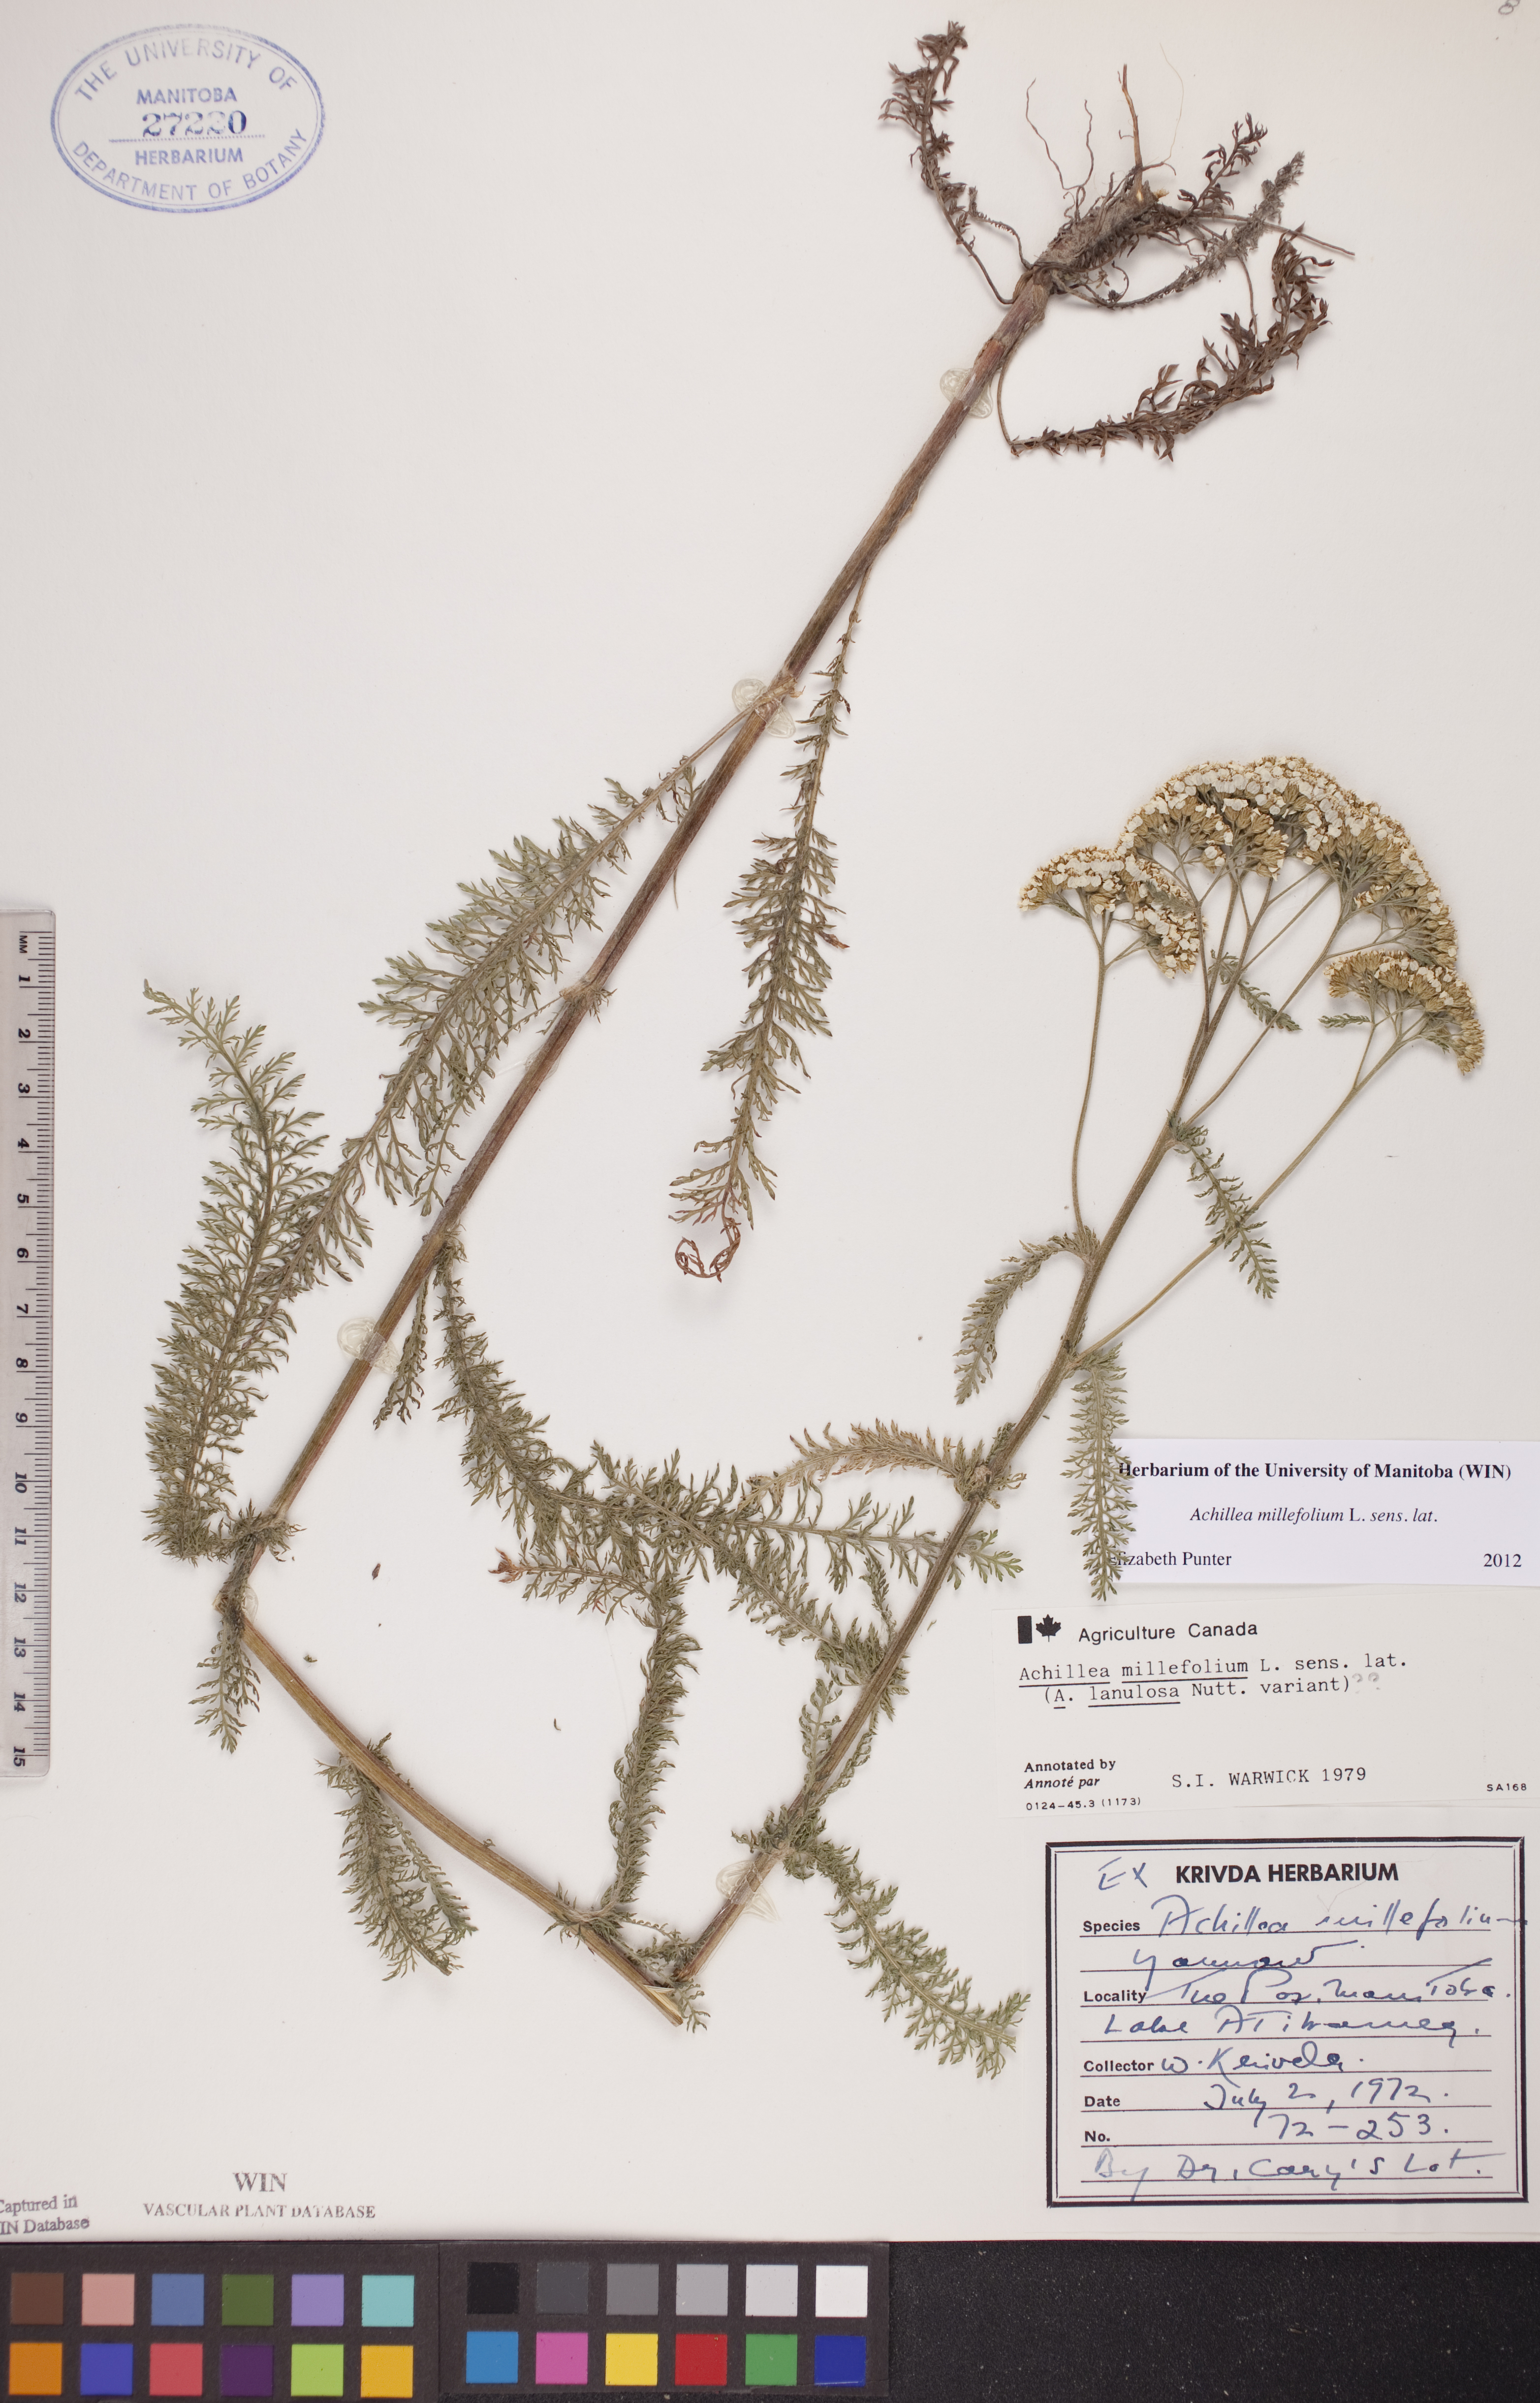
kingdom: Plantae
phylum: Tracheophyta
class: Magnoliopsida
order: Asterales
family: Asteraceae
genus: Achillea
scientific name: Achillea millefolium
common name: Yarrow
